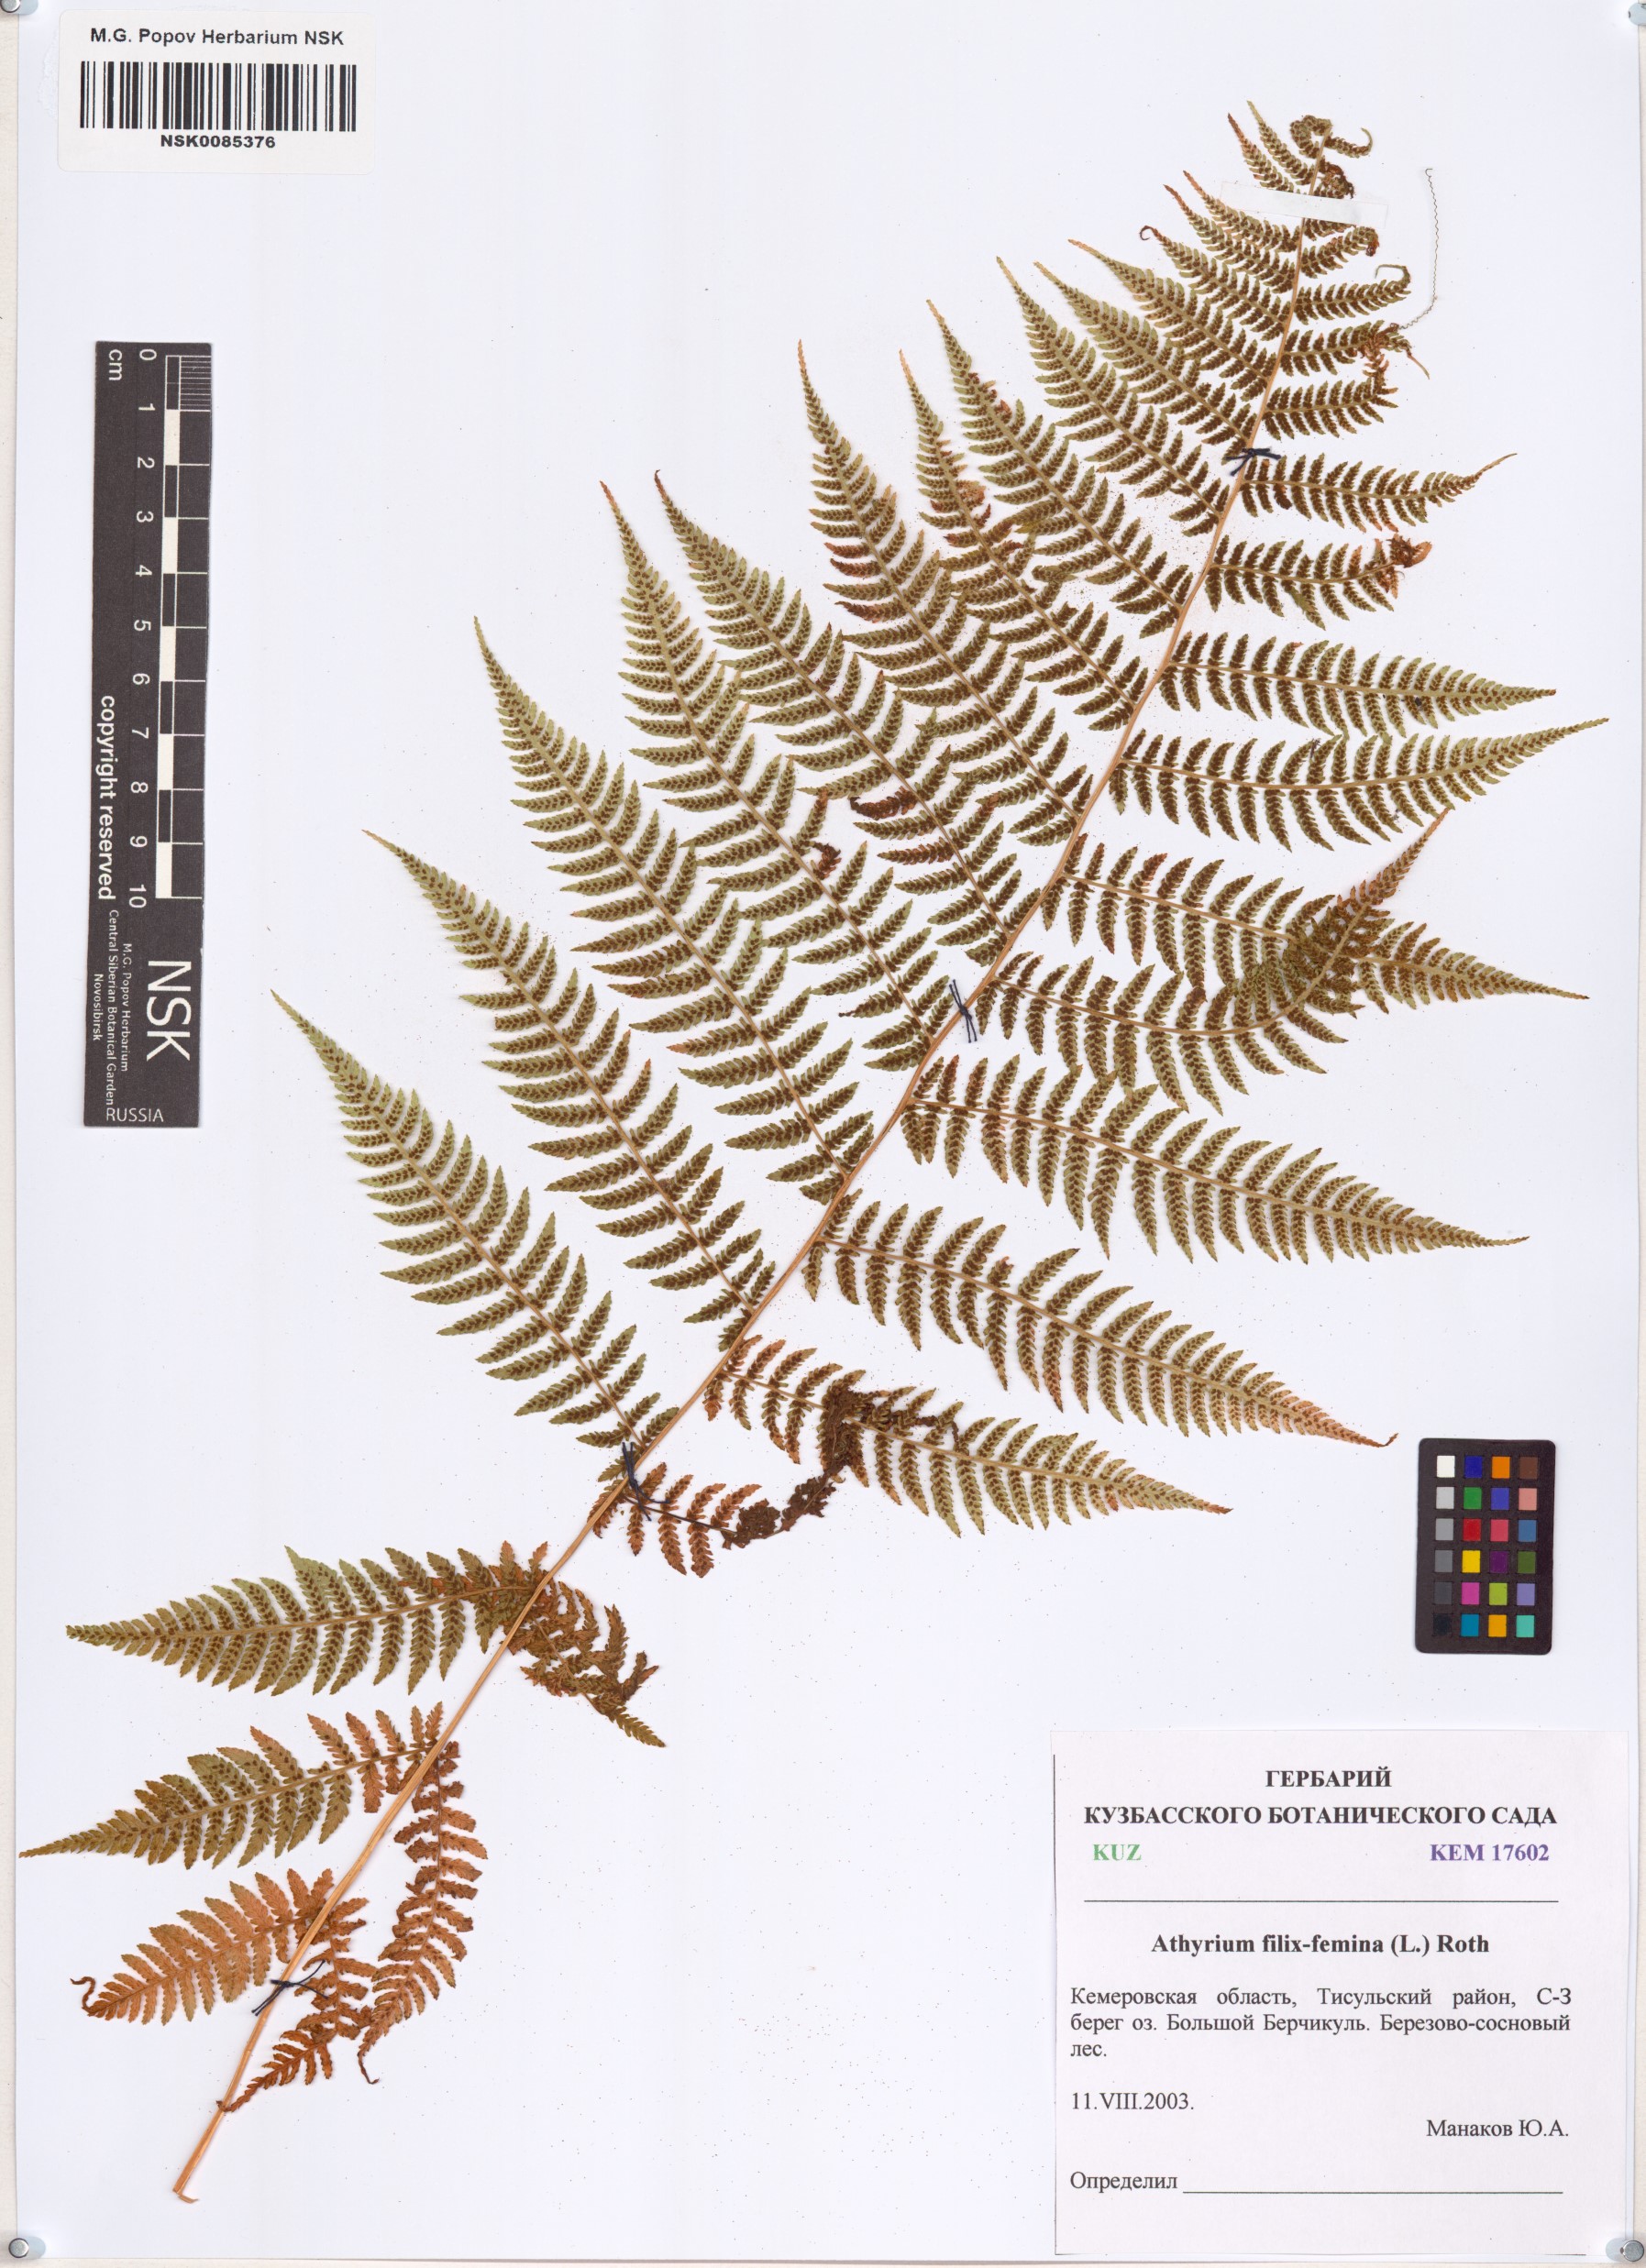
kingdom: Plantae
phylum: Tracheophyta
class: Polypodiopsida
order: Polypodiales
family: Athyriaceae
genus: Athyrium
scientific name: Athyrium filix-femina
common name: Lady fern
